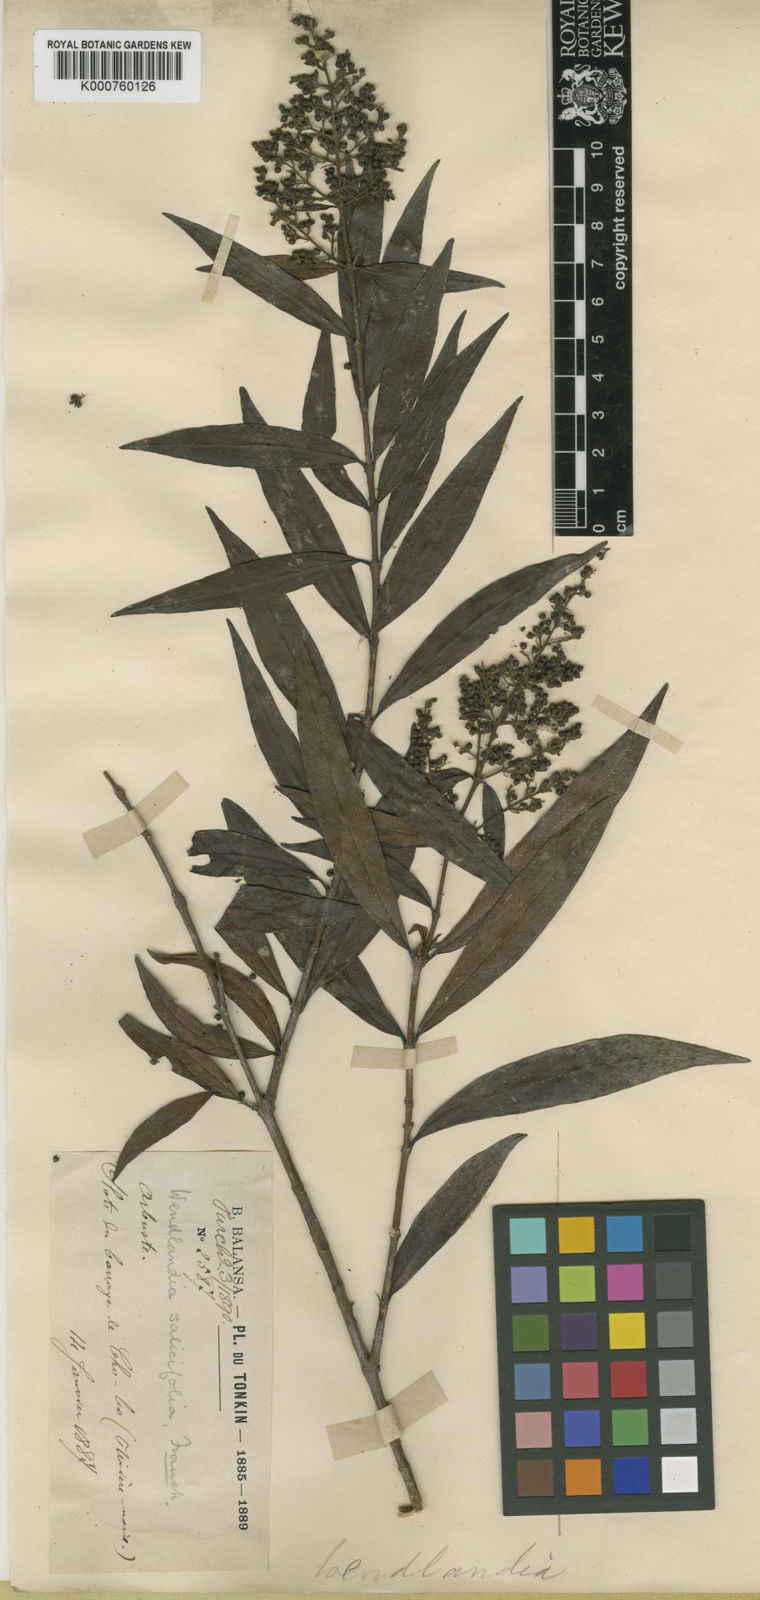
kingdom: Plantae
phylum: Tracheophyta
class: Magnoliopsida
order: Gentianales
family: Rubiaceae
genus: Wendlandia
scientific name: Wendlandia
